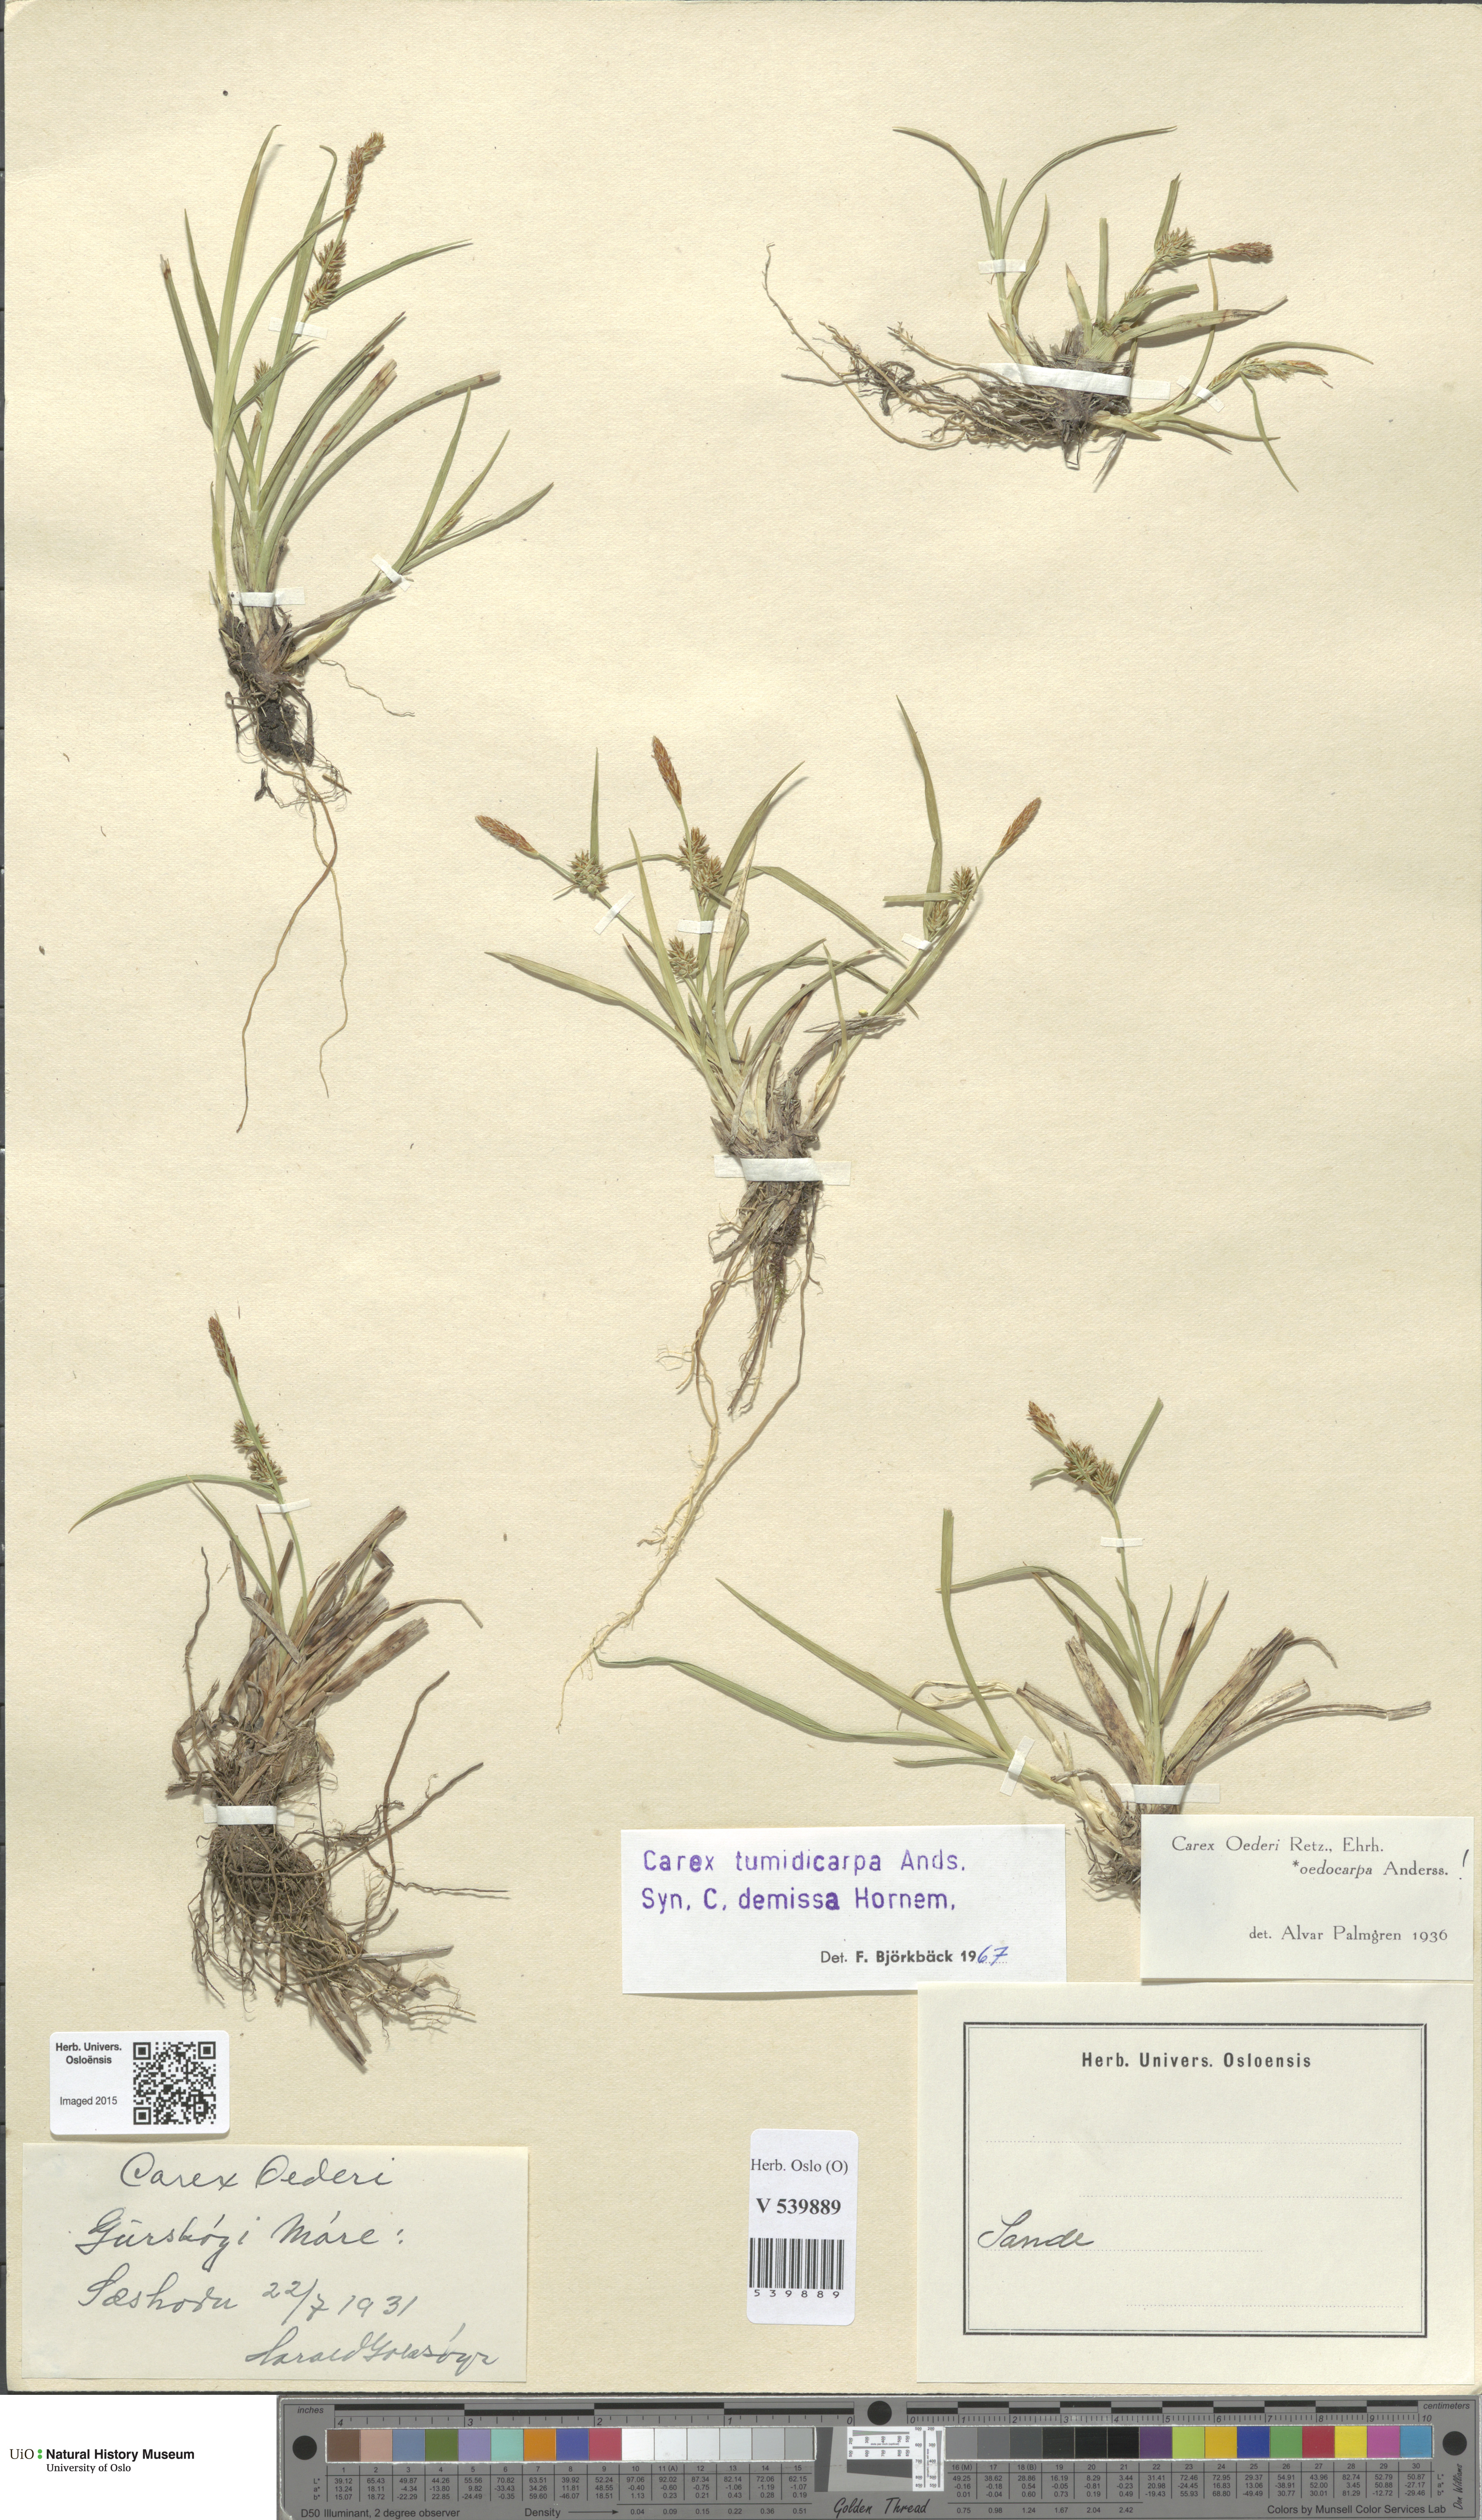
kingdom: Plantae
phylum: Tracheophyta
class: Liliopsida
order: Poales
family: Cyperaceae
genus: Carex
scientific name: Carex demissa
